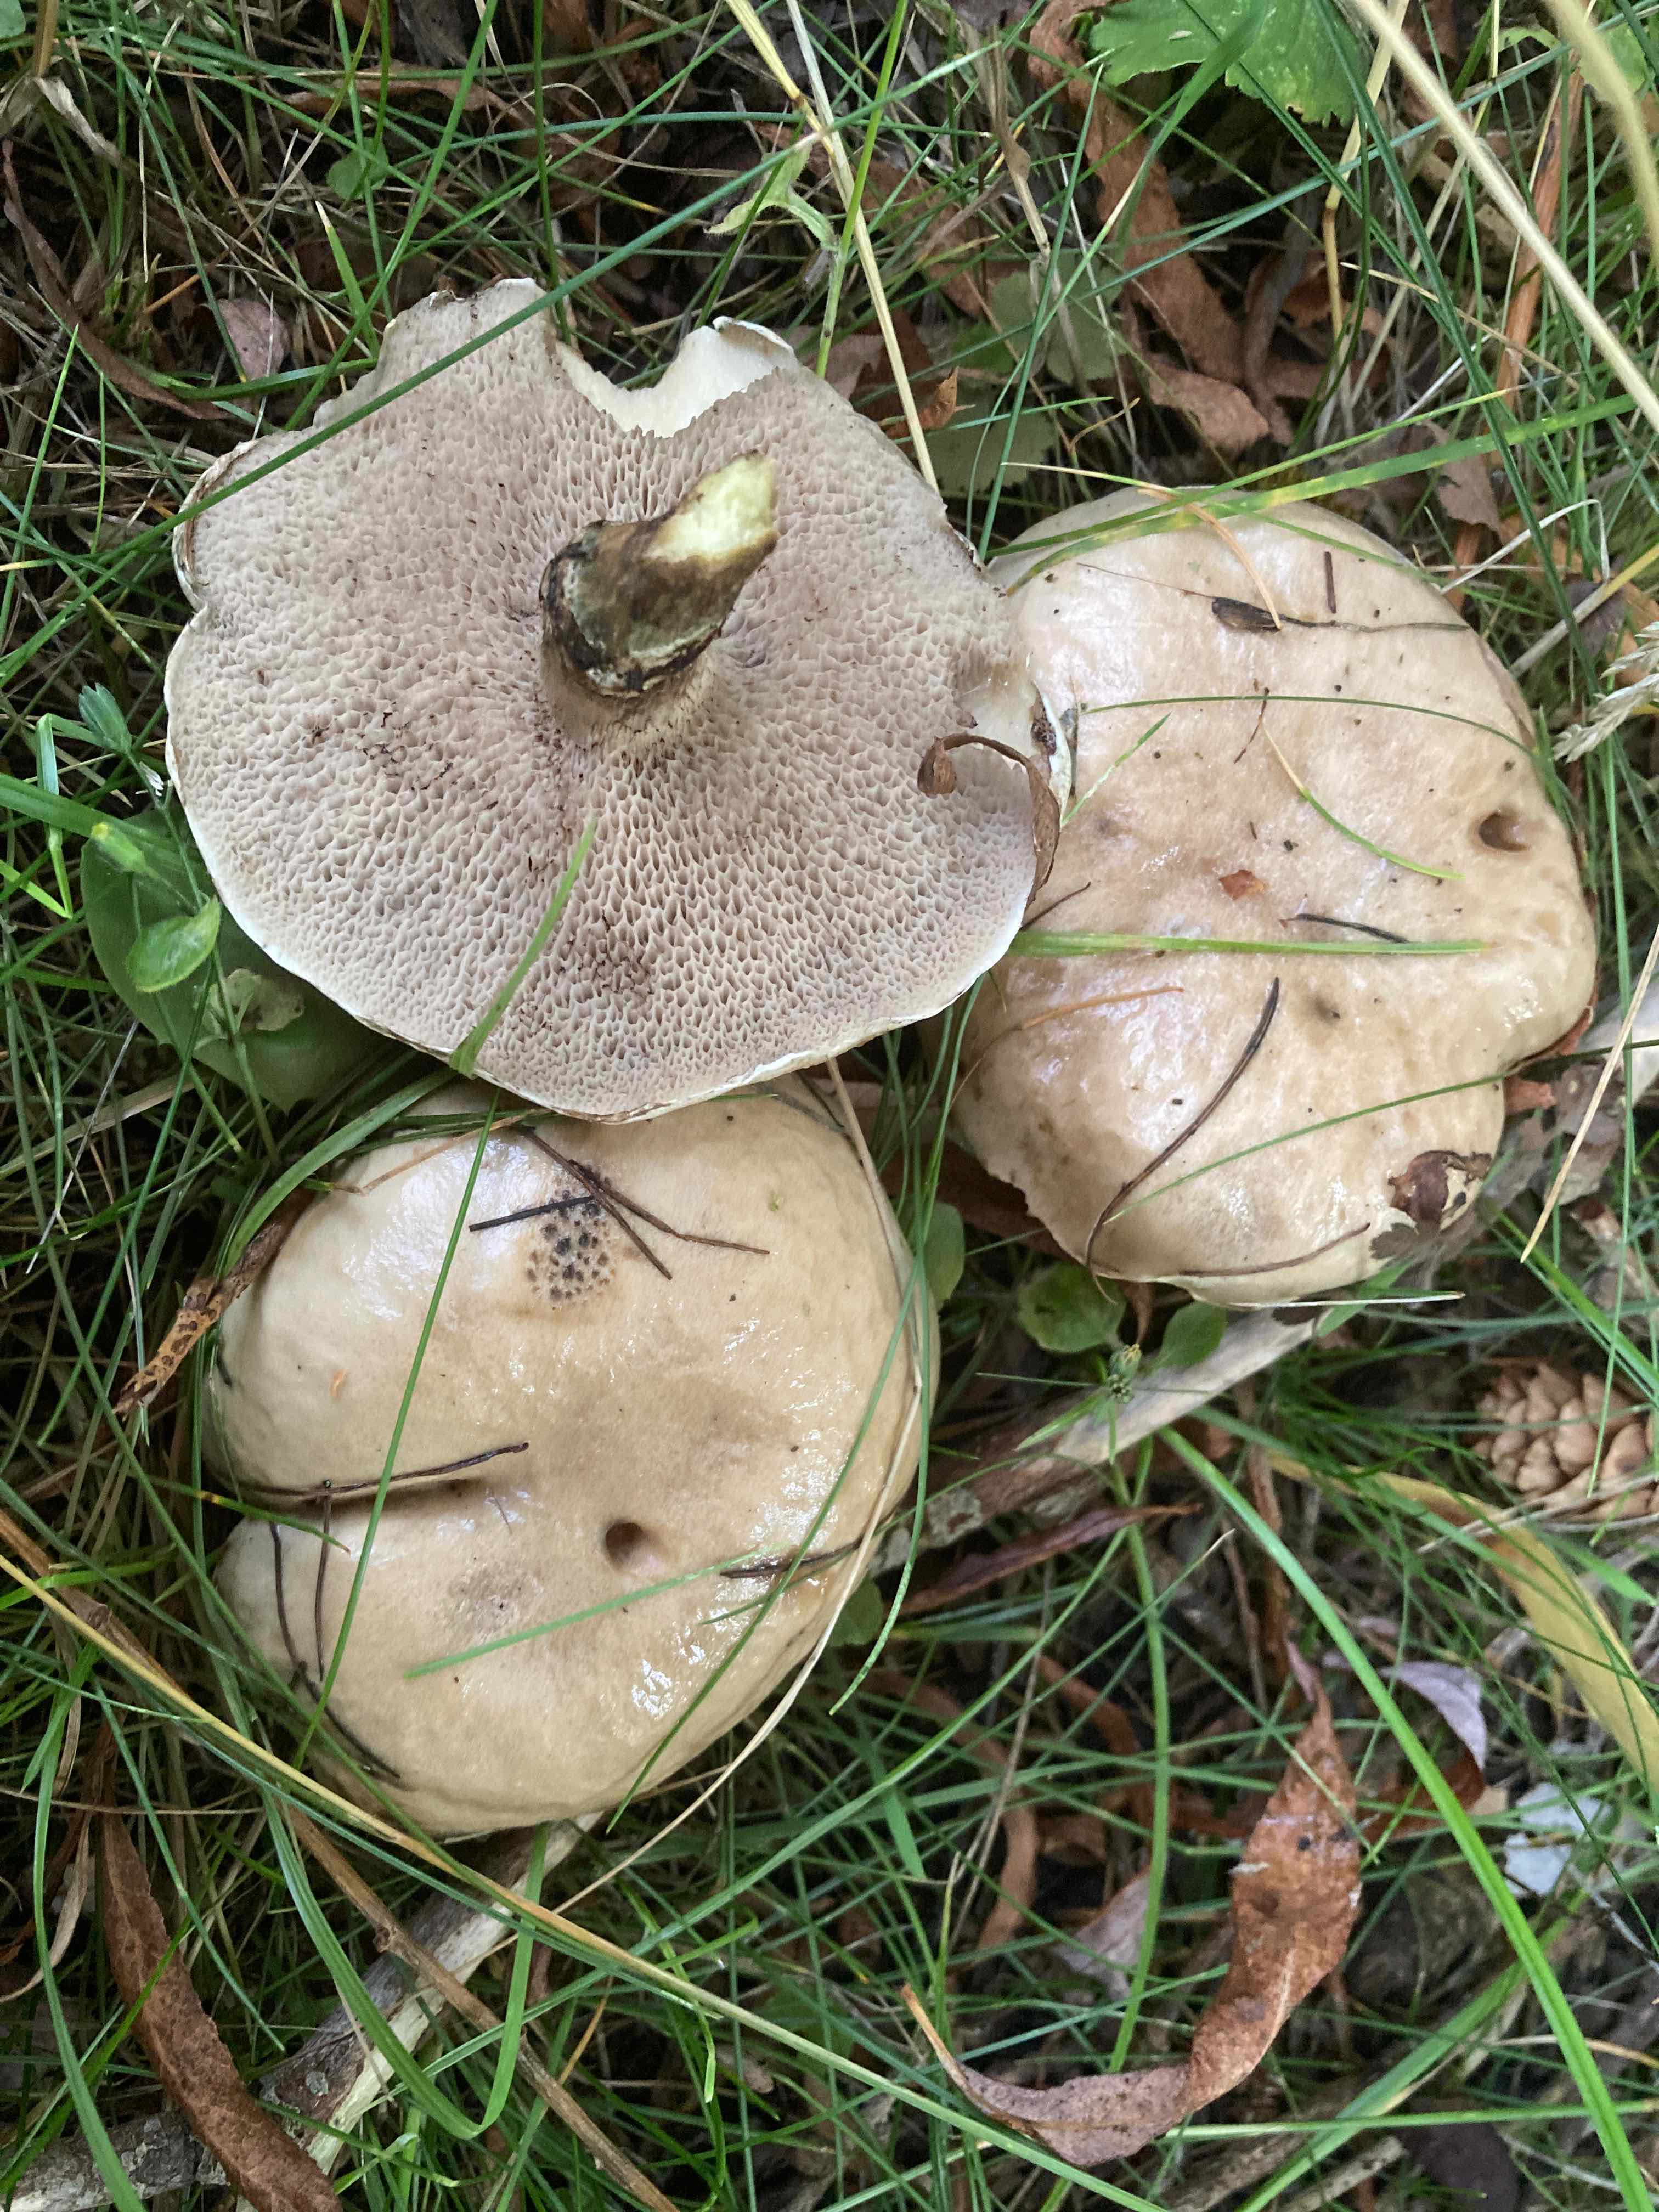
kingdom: Fungi
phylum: Basidiomycota
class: Agaricomycetes
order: Boletales
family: Suillaceae
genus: Suillus
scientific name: Suillus viscidus
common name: olivengrå slimrørhat
